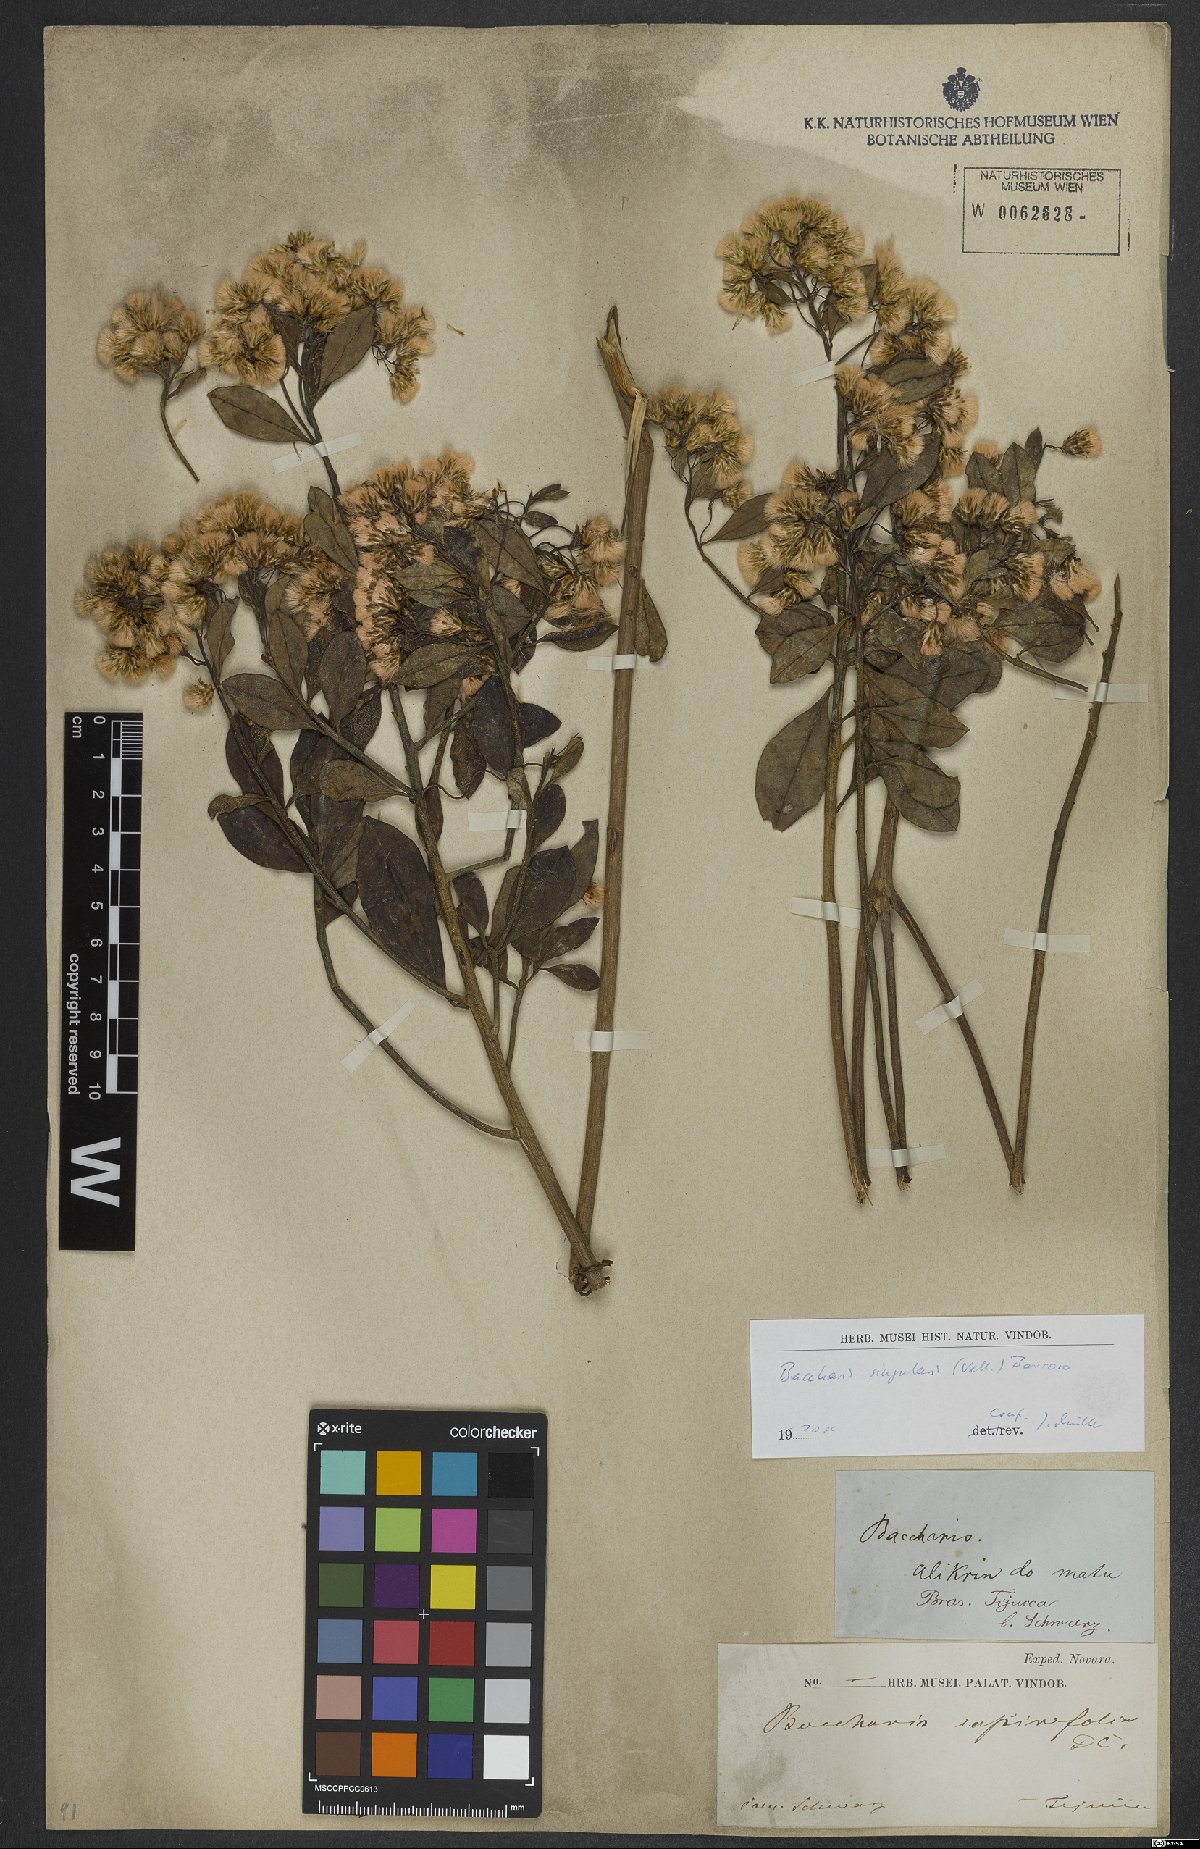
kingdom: Plantae
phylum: Tracheophyta
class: Magnoliopsida
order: Asterales
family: Asteraceae
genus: Baccharis
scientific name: Baccharis singularis
